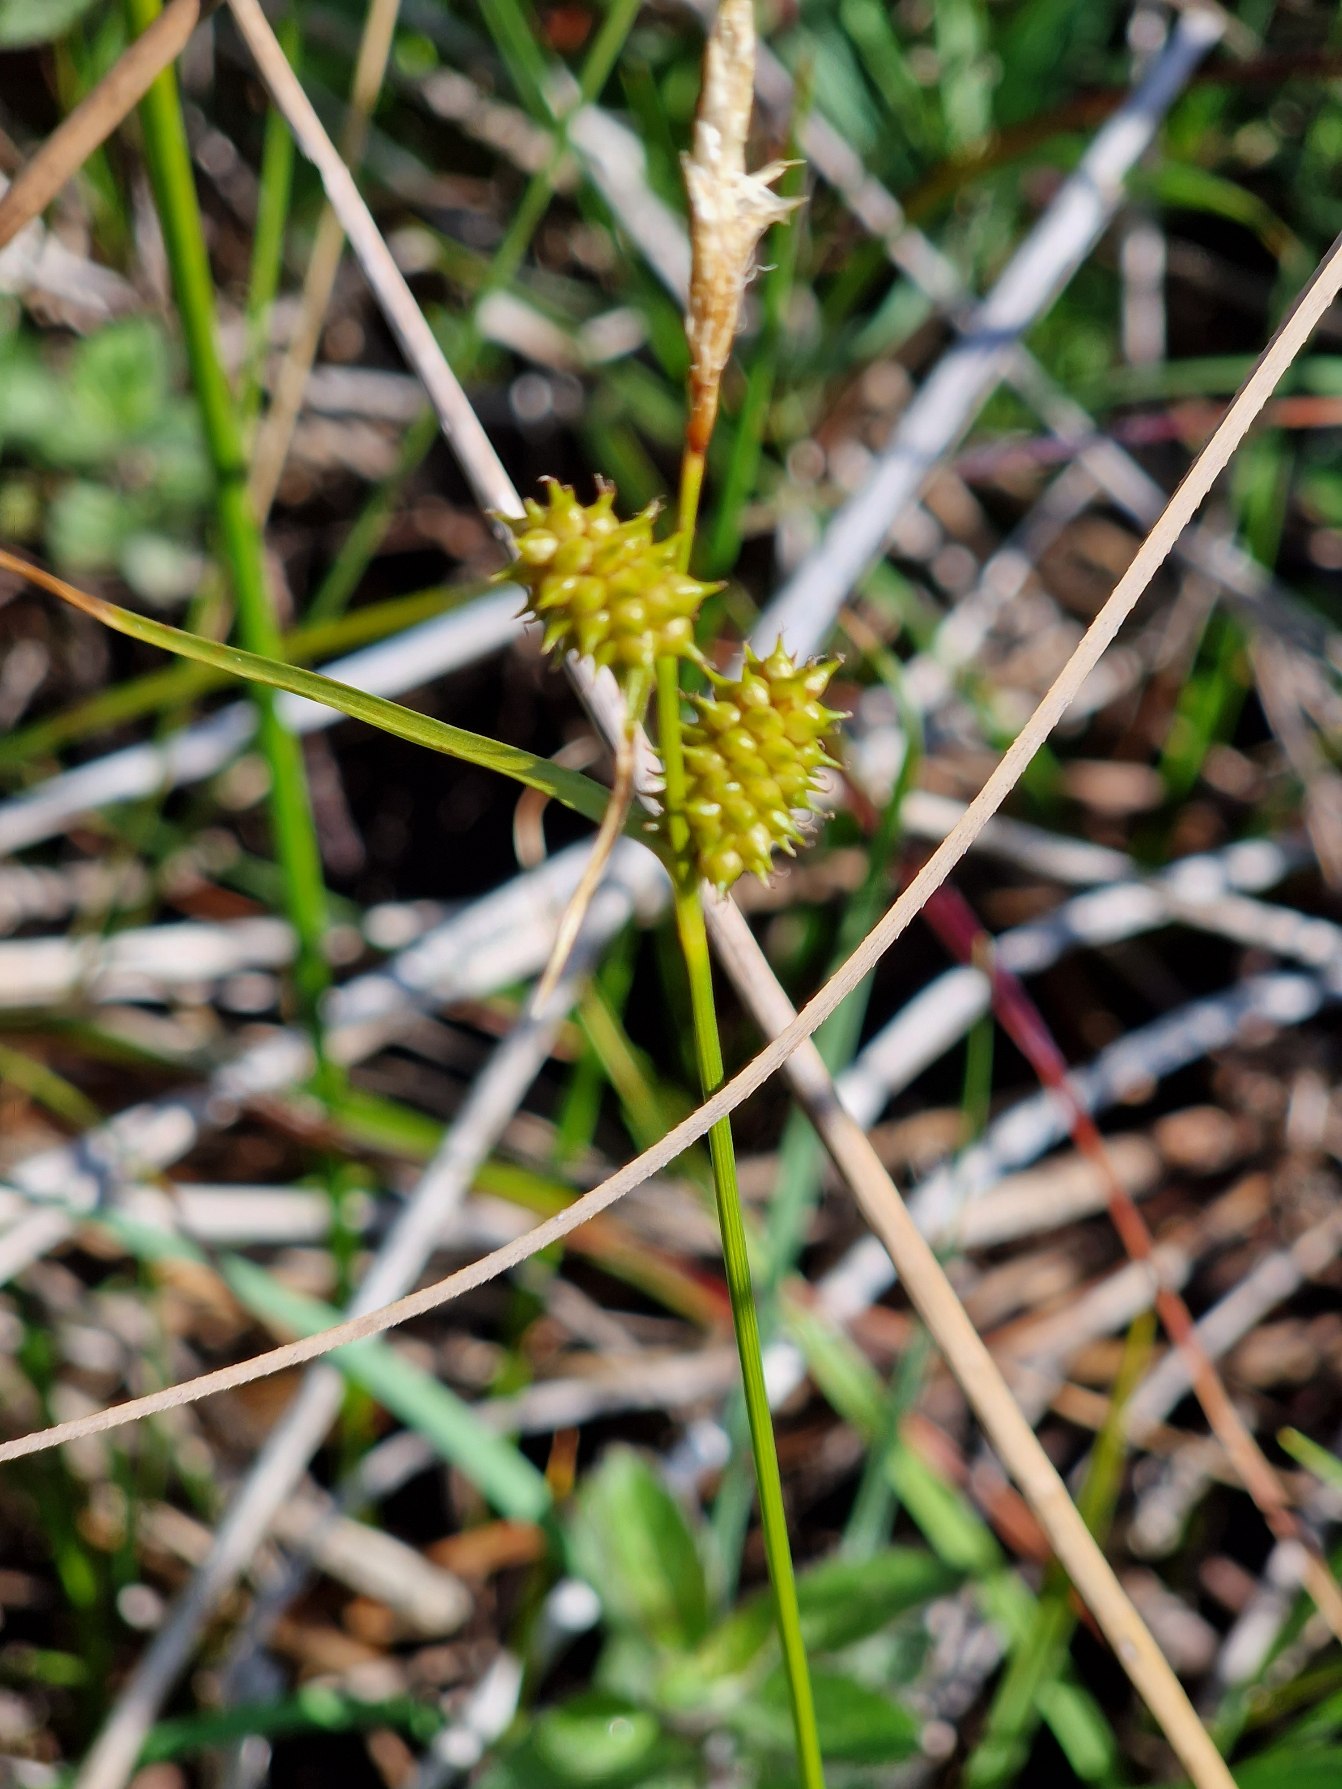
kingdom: Plantae
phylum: Tracheophyta
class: Liliopsida
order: Poales
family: Cyperaceae
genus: Carex
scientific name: Carex demissa
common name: Grøn star
